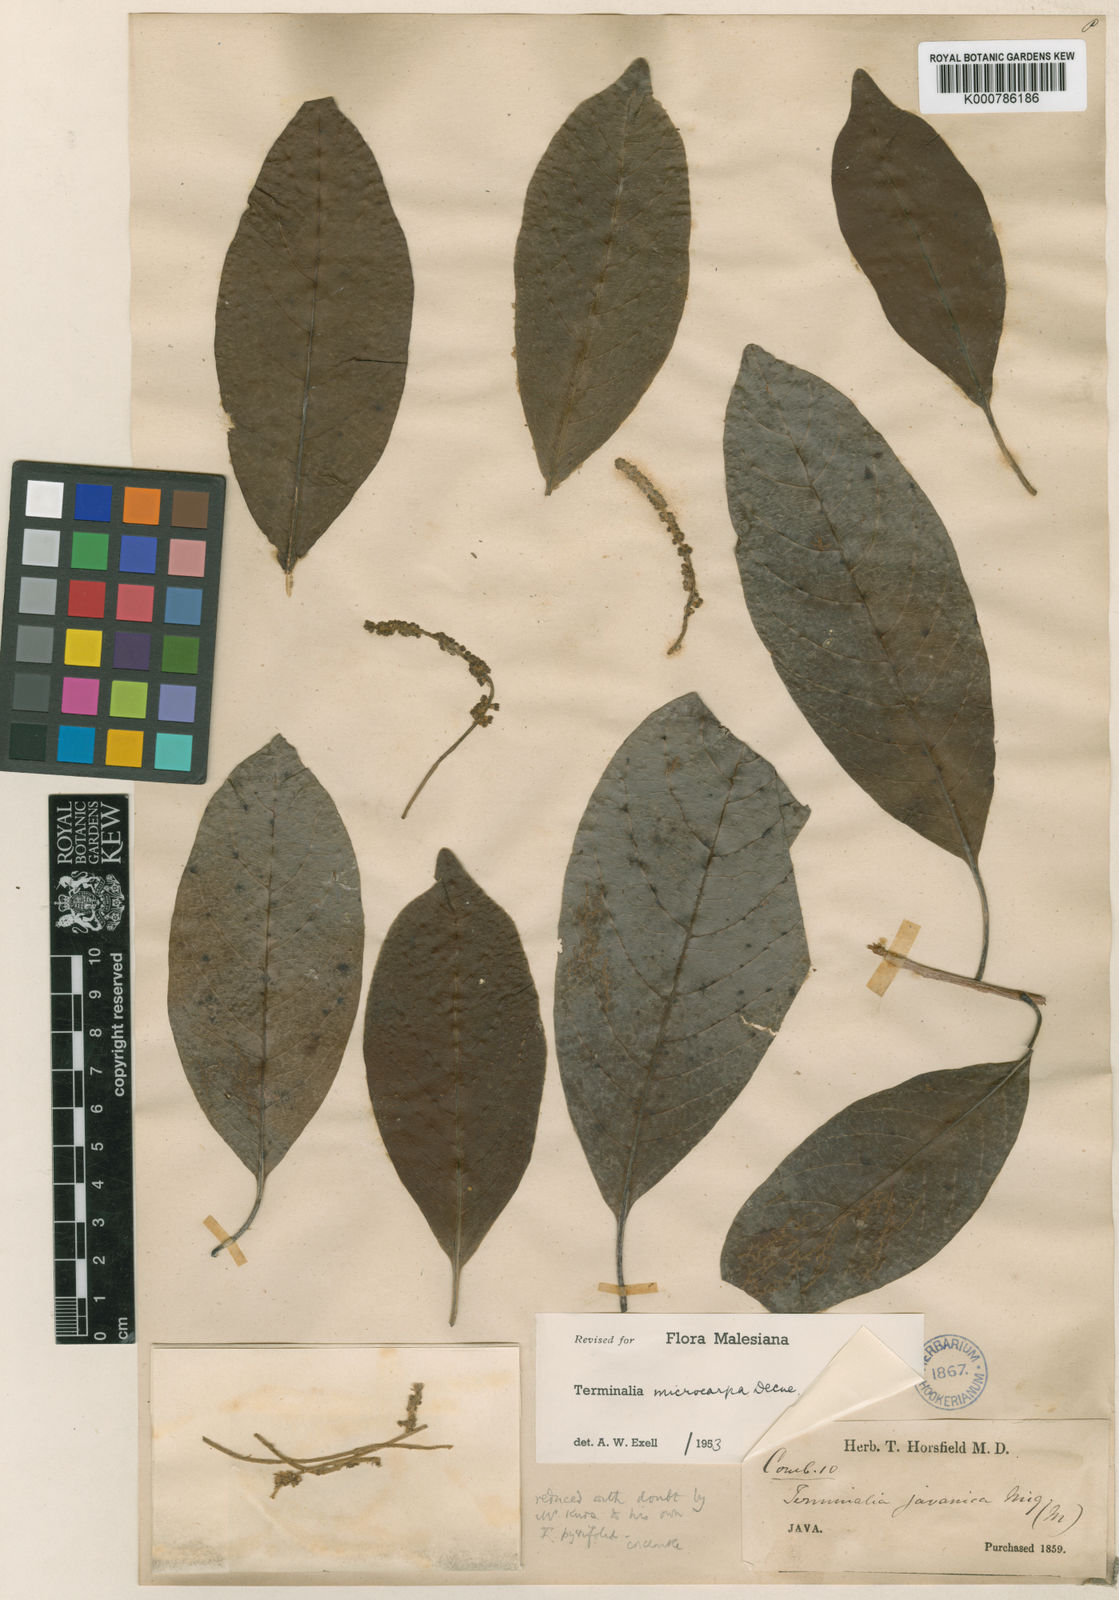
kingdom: Plantae
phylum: Tracheophyta
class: Magnoliopsida
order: Myrtales
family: Combretaceae
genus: Terminalia
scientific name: Terminalia microcarpa
